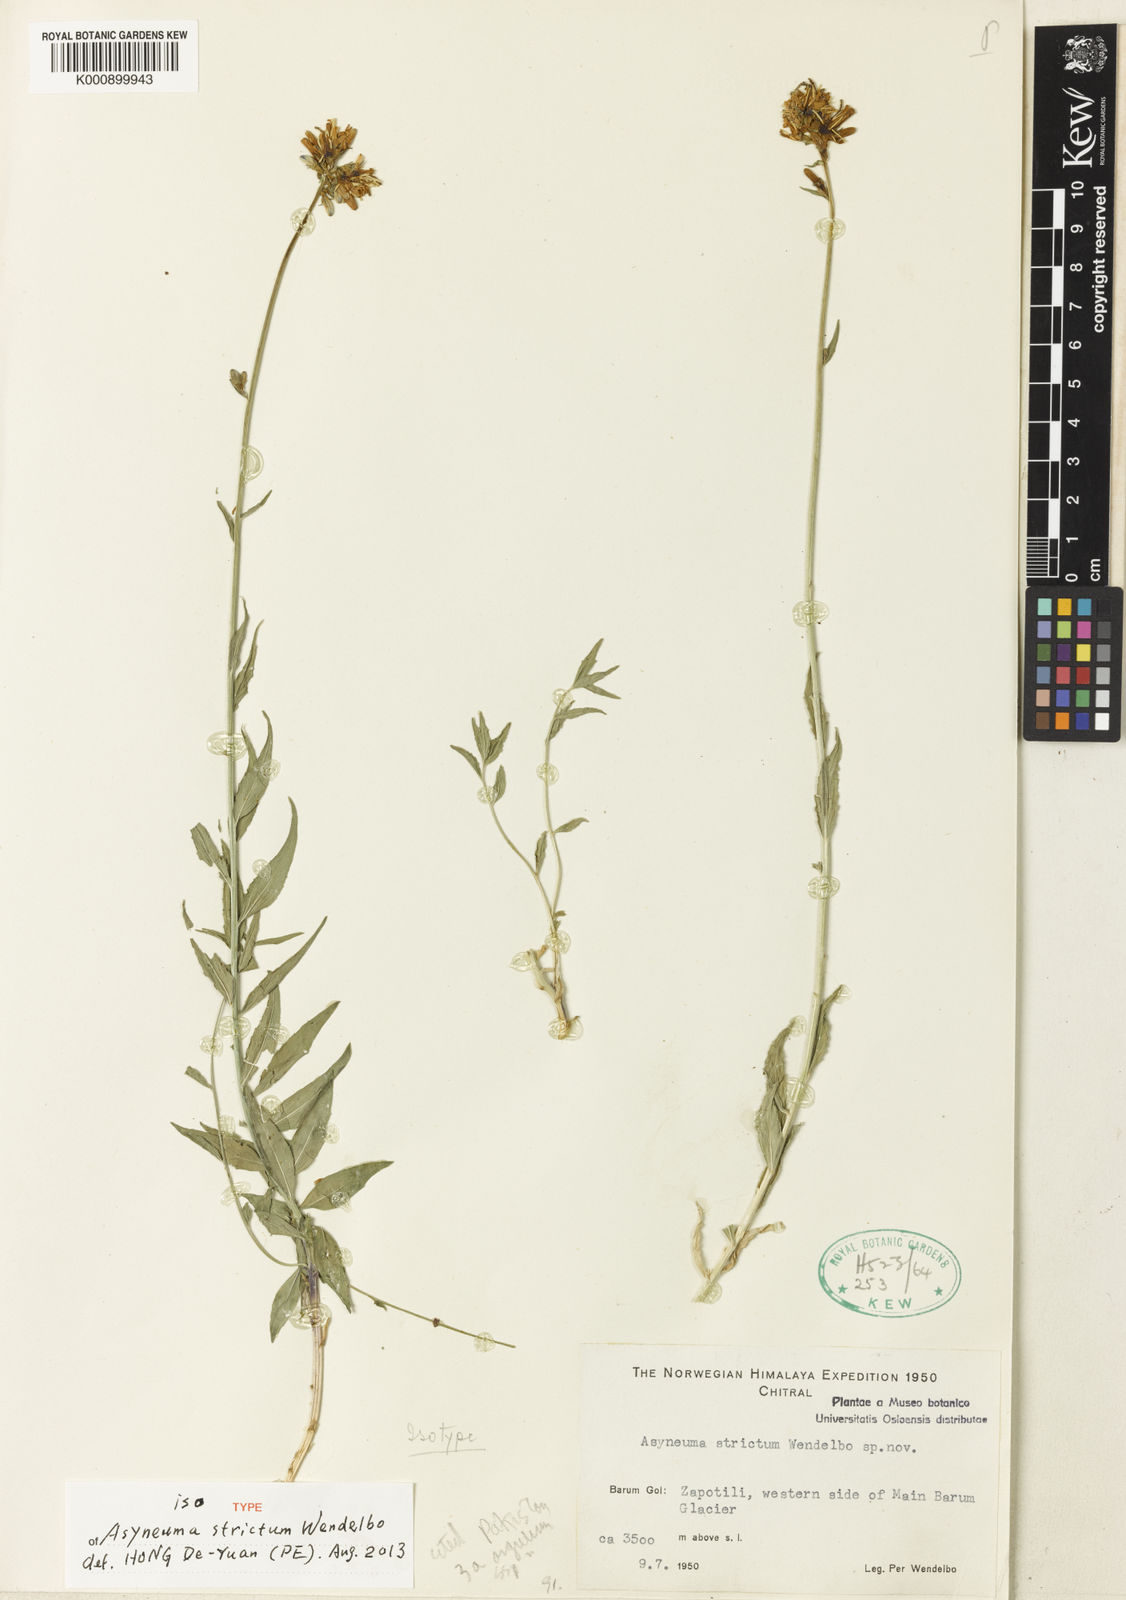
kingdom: Plantae
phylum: Tracheophyta
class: Magnoliopsida
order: Asterales
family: Campanulaceae
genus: Asyneuma
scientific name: Asyneuma argutum
